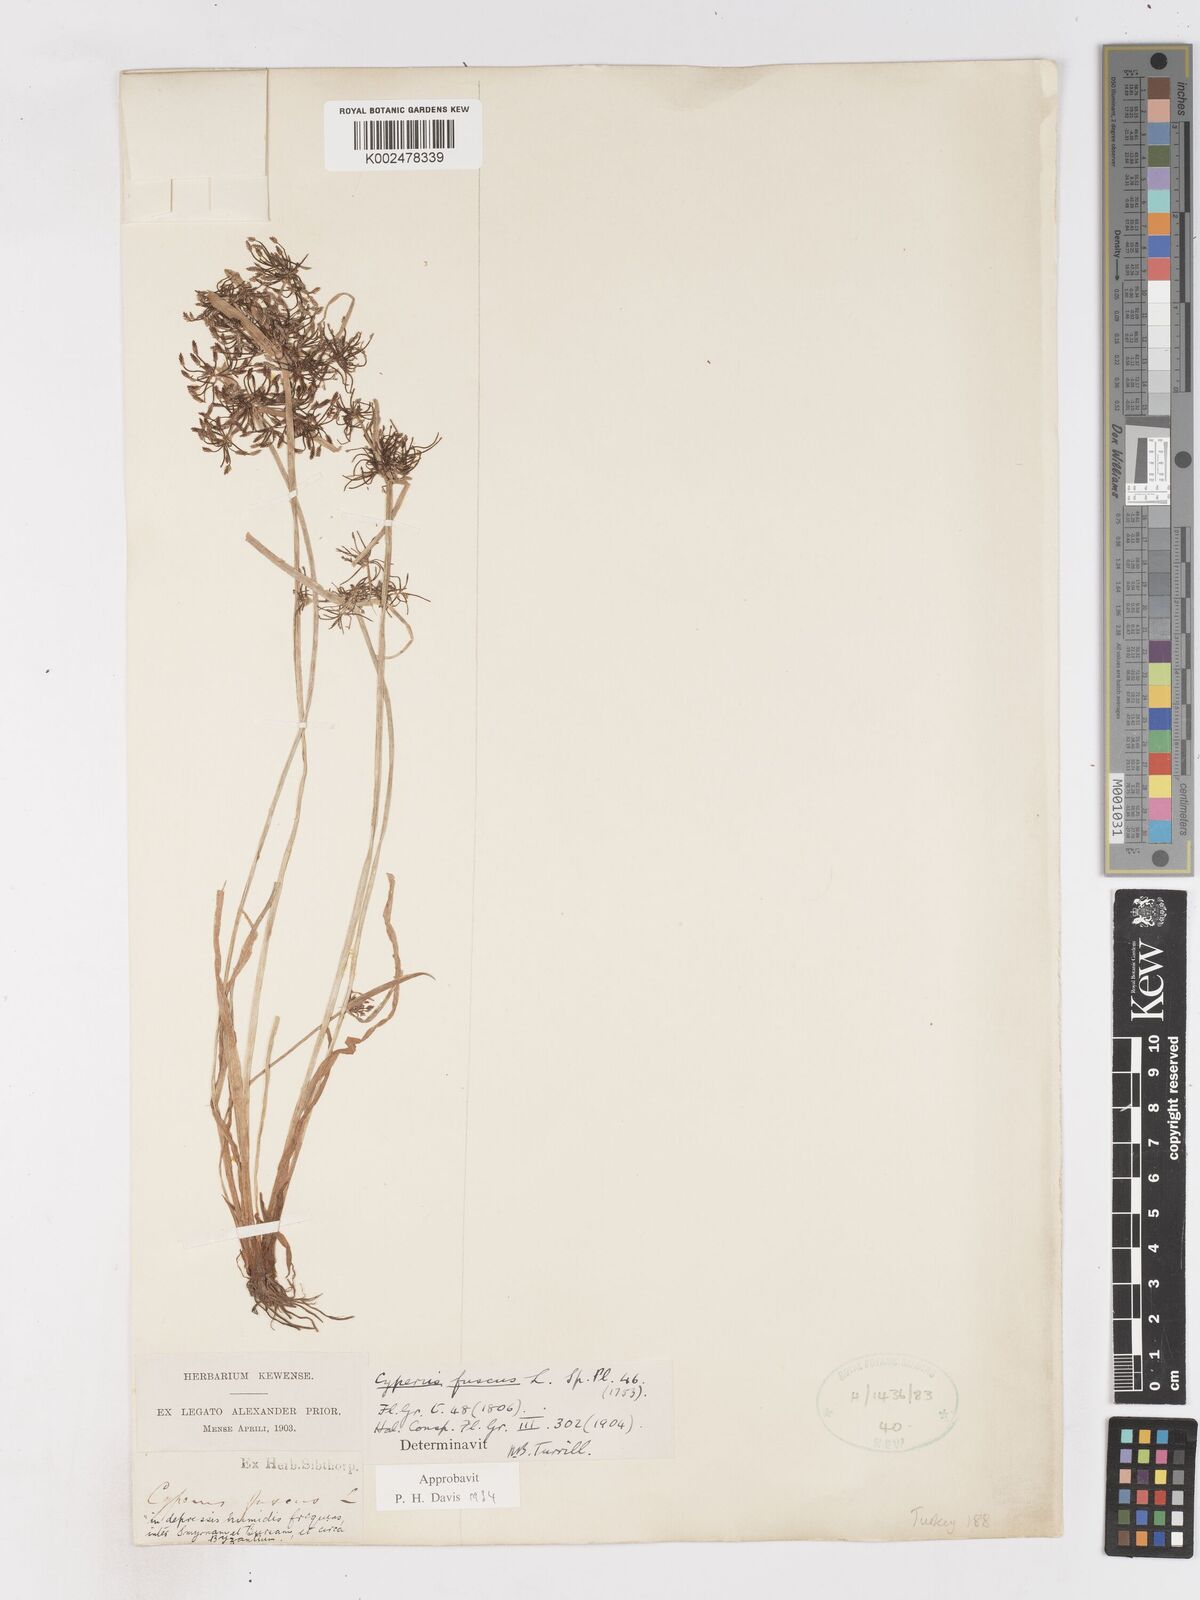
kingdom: Plantae
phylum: Tracheophyta
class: Liliopsida
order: Poales
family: Cyperaceae
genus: Cyperus
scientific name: Cyperus fuscus
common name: Brown galingale
